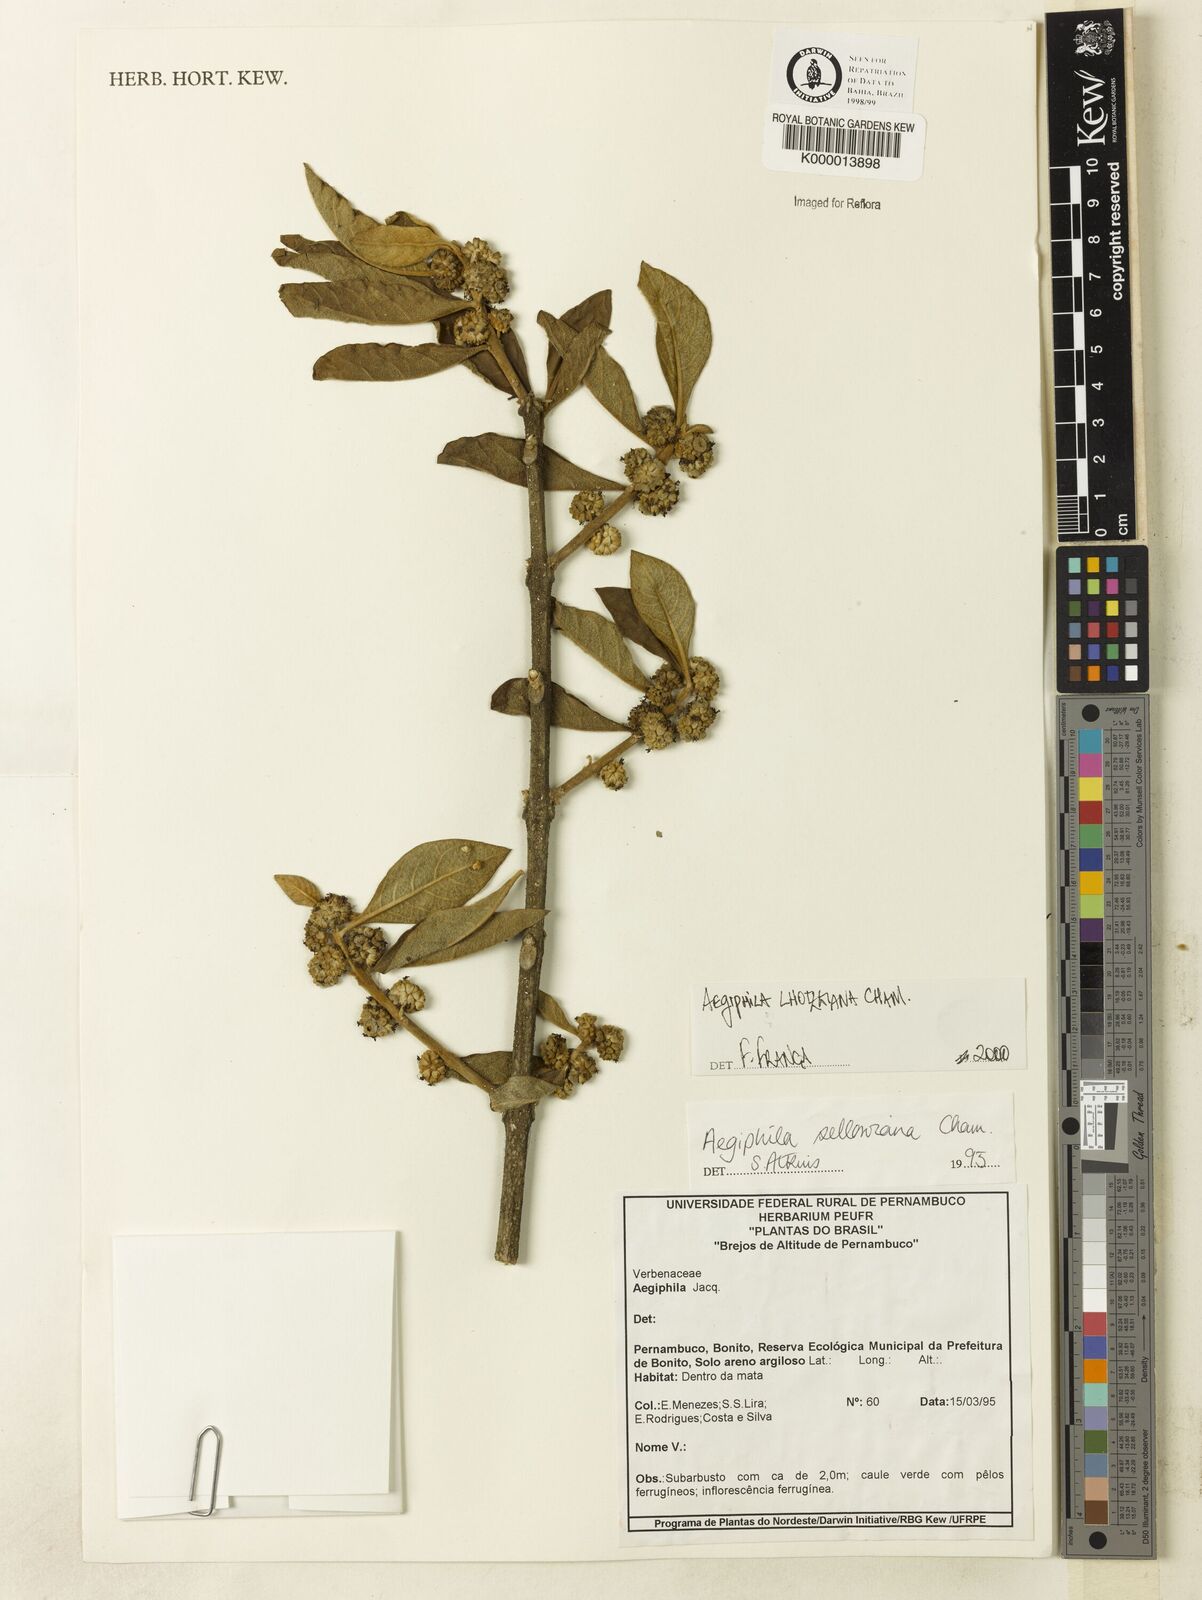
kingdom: Plantae
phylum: Tracheophyta
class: Magnoliopsida
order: Lamiales
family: Lamiaceae
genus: Aegiphila
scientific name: Aegiphila verticillata
